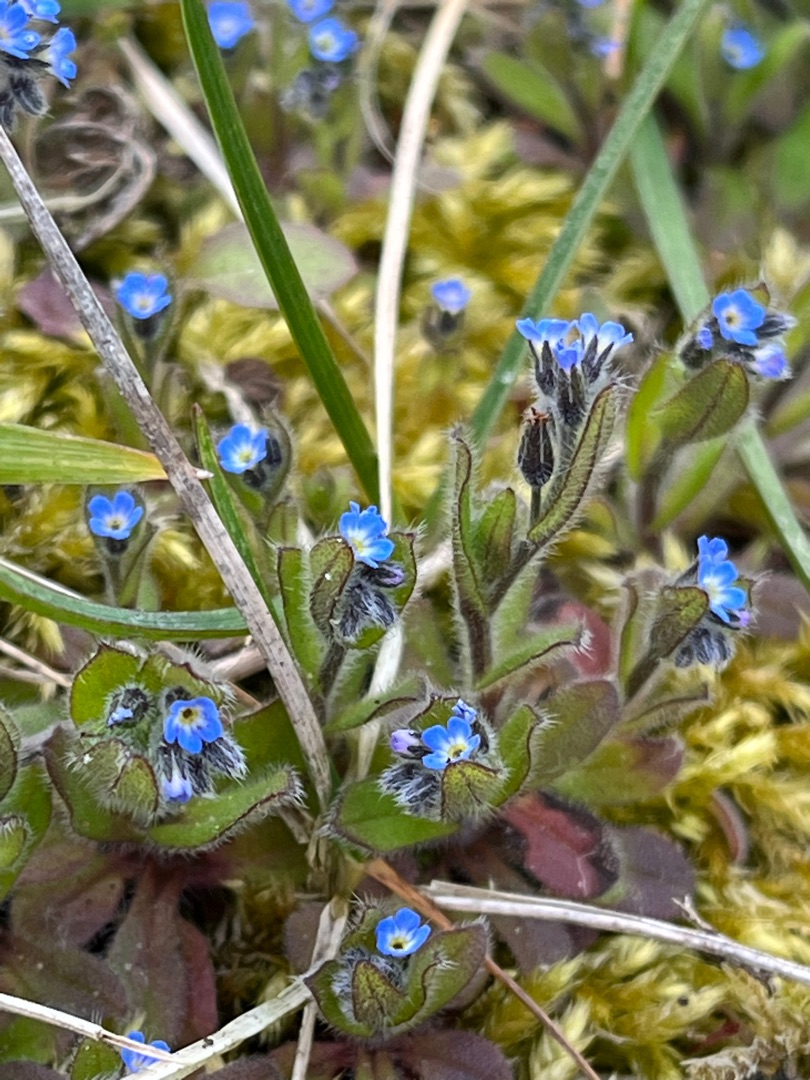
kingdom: Plantae
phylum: Tracheophyta
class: Magnoliopsida
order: Boraginales
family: Boraginaceae
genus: Myosotis
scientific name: Myosotis ramosissima
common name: Bakke-forglemmigej
